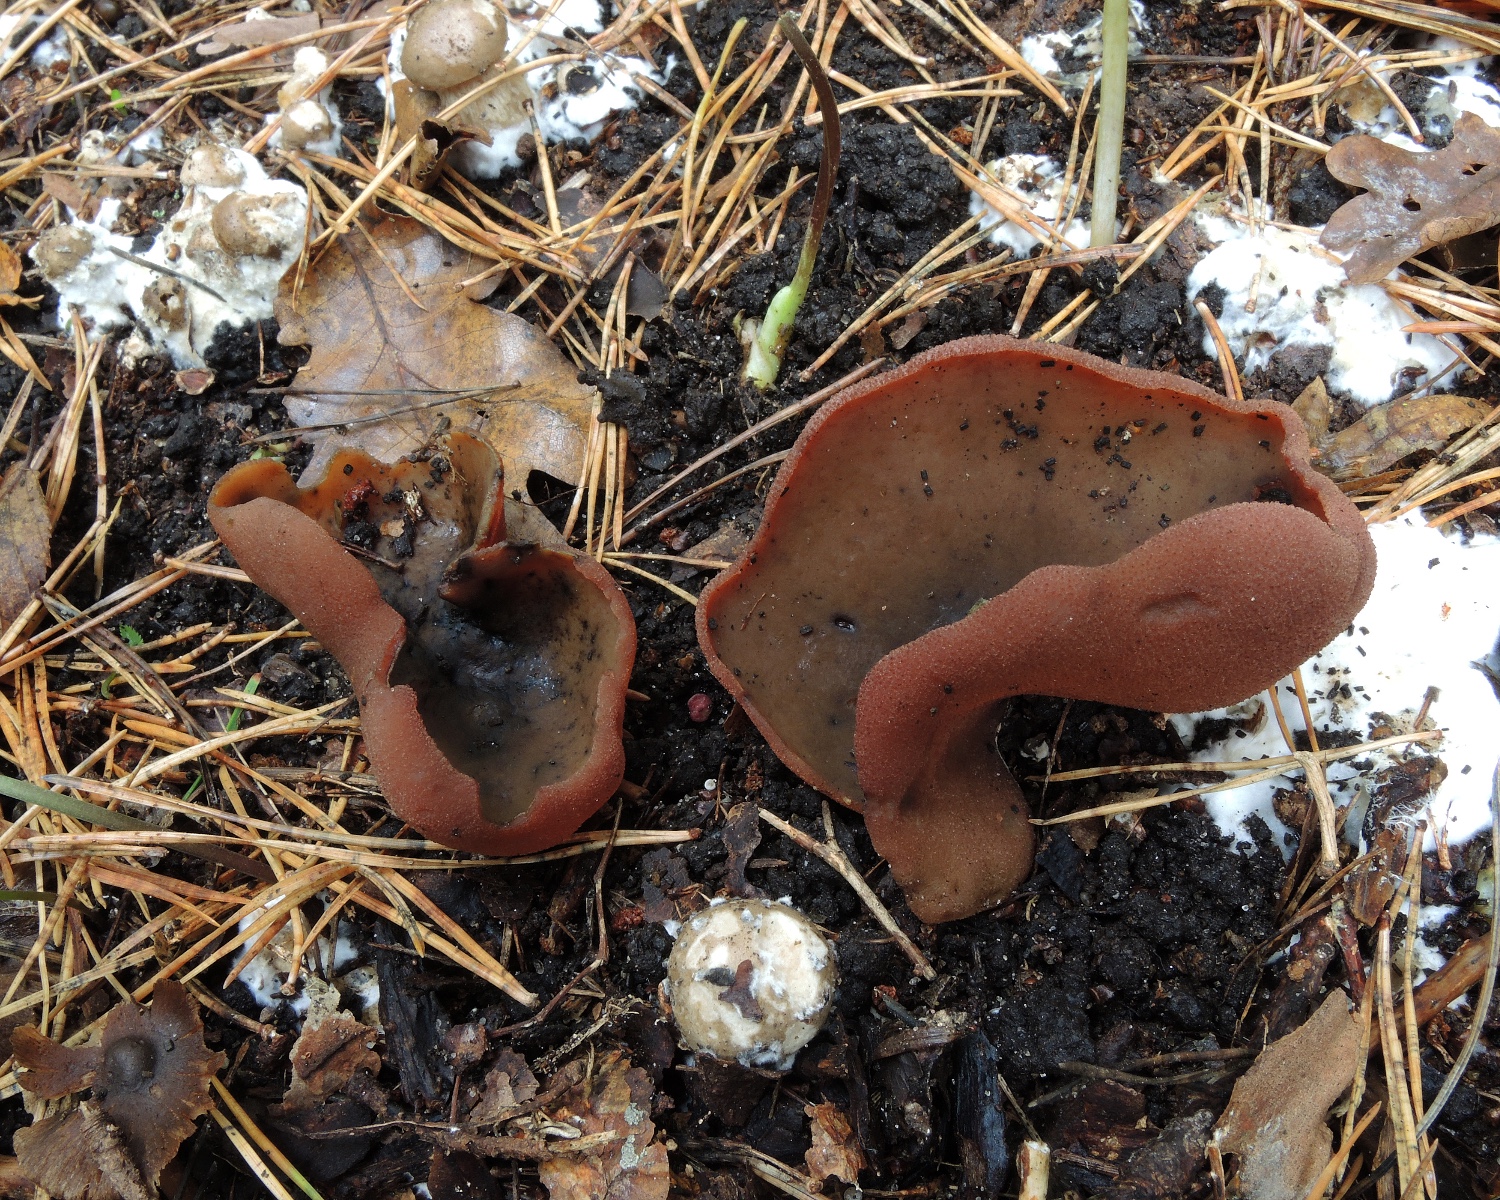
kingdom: Fungi
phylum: Ascomycota
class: Pezizomycetes
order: Pezizales
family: Pezizaceae
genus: Adelphella
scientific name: Adelphella babingtonii
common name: kastaniebrun bægersvamp
